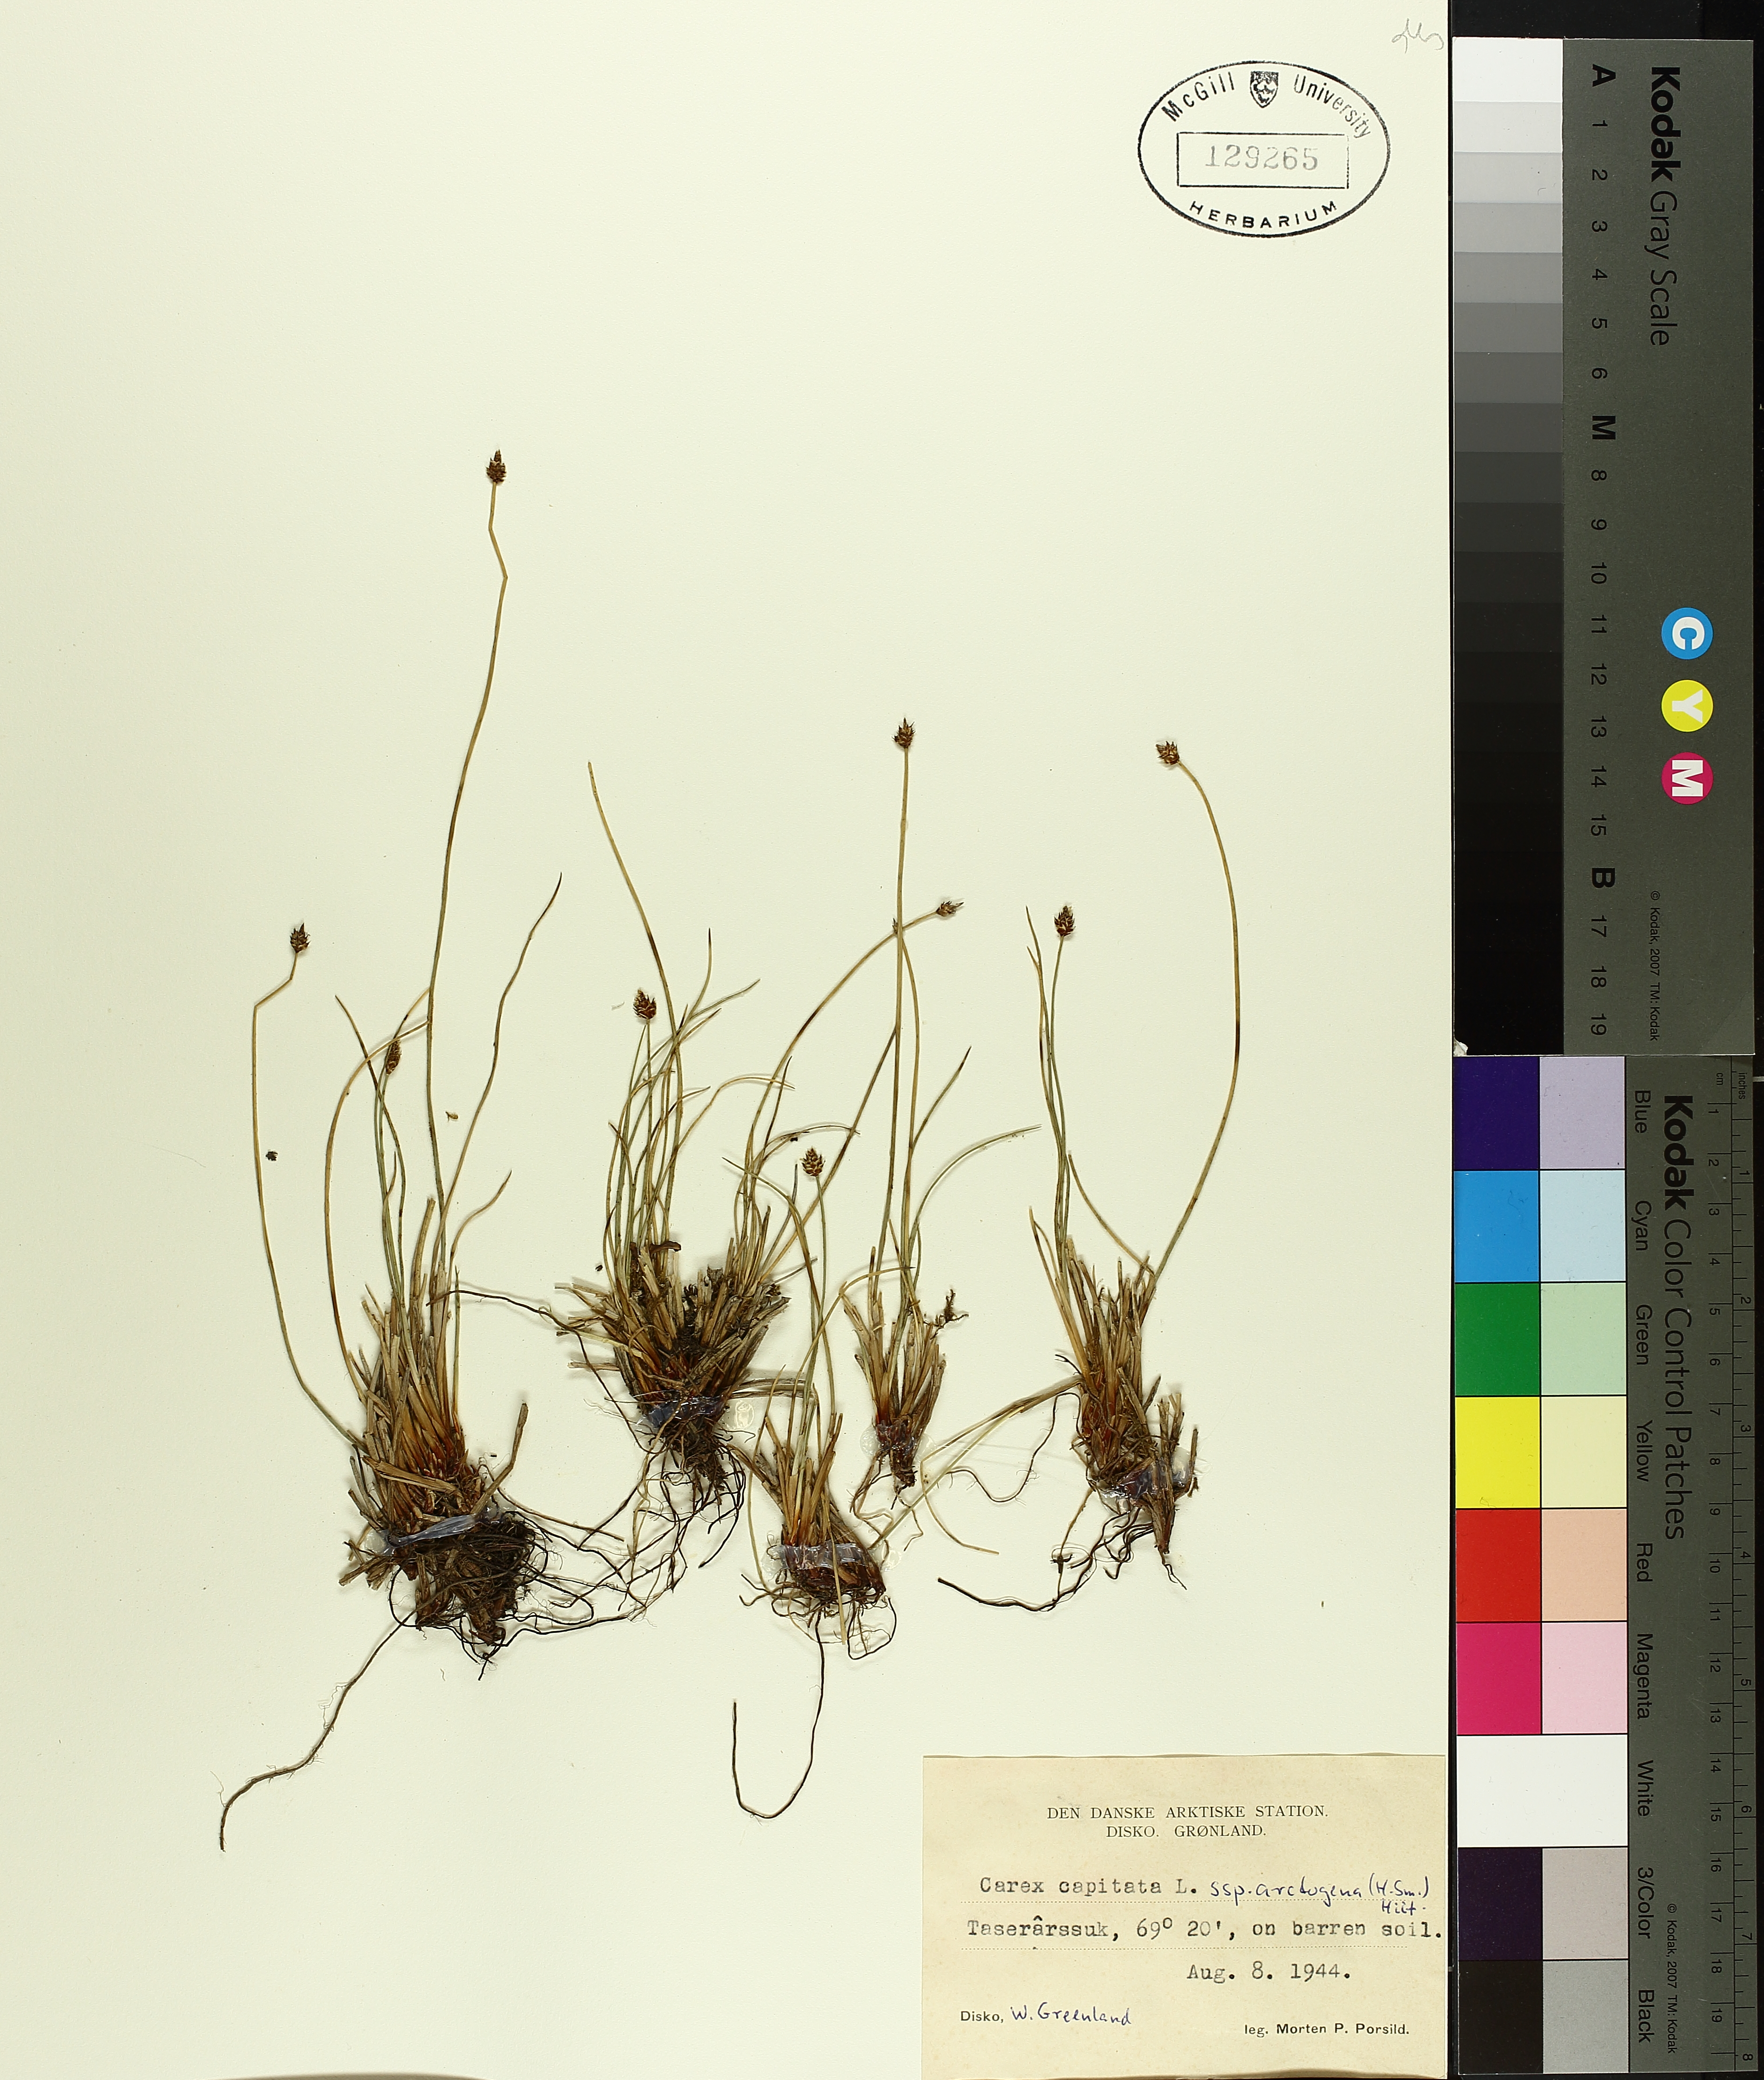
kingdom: Plantae
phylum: Tracheophyta
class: Liliopsida
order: Poales
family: Cyperaceae
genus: Carex
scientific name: Carex arctogena
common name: Black sedge
